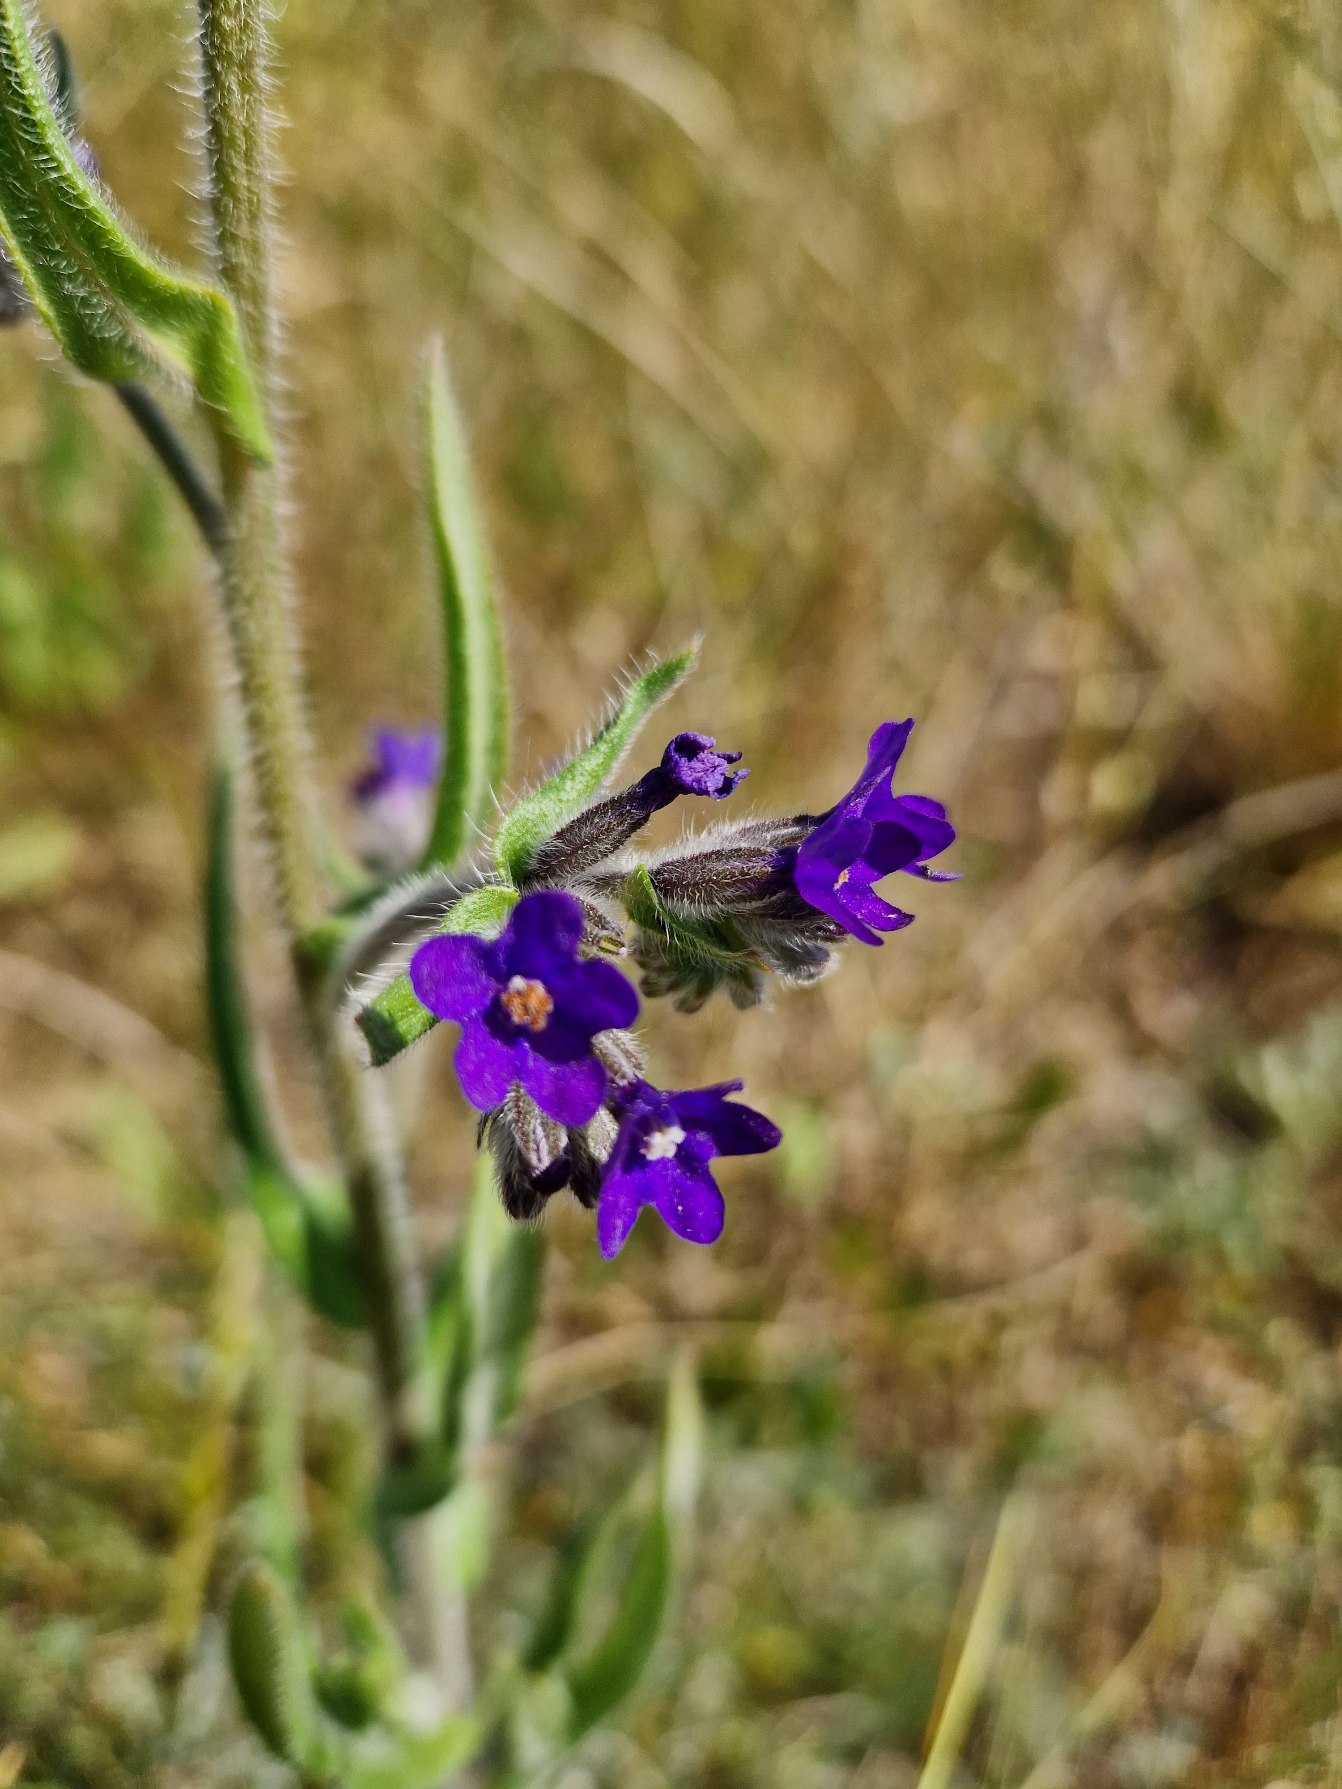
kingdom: Plantae
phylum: Tracheophyta
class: Magnoliopsida
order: Boraginales
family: Boraginaceae
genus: Anchusa
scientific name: Anchusa officinalis
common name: Læge-oksetunge
